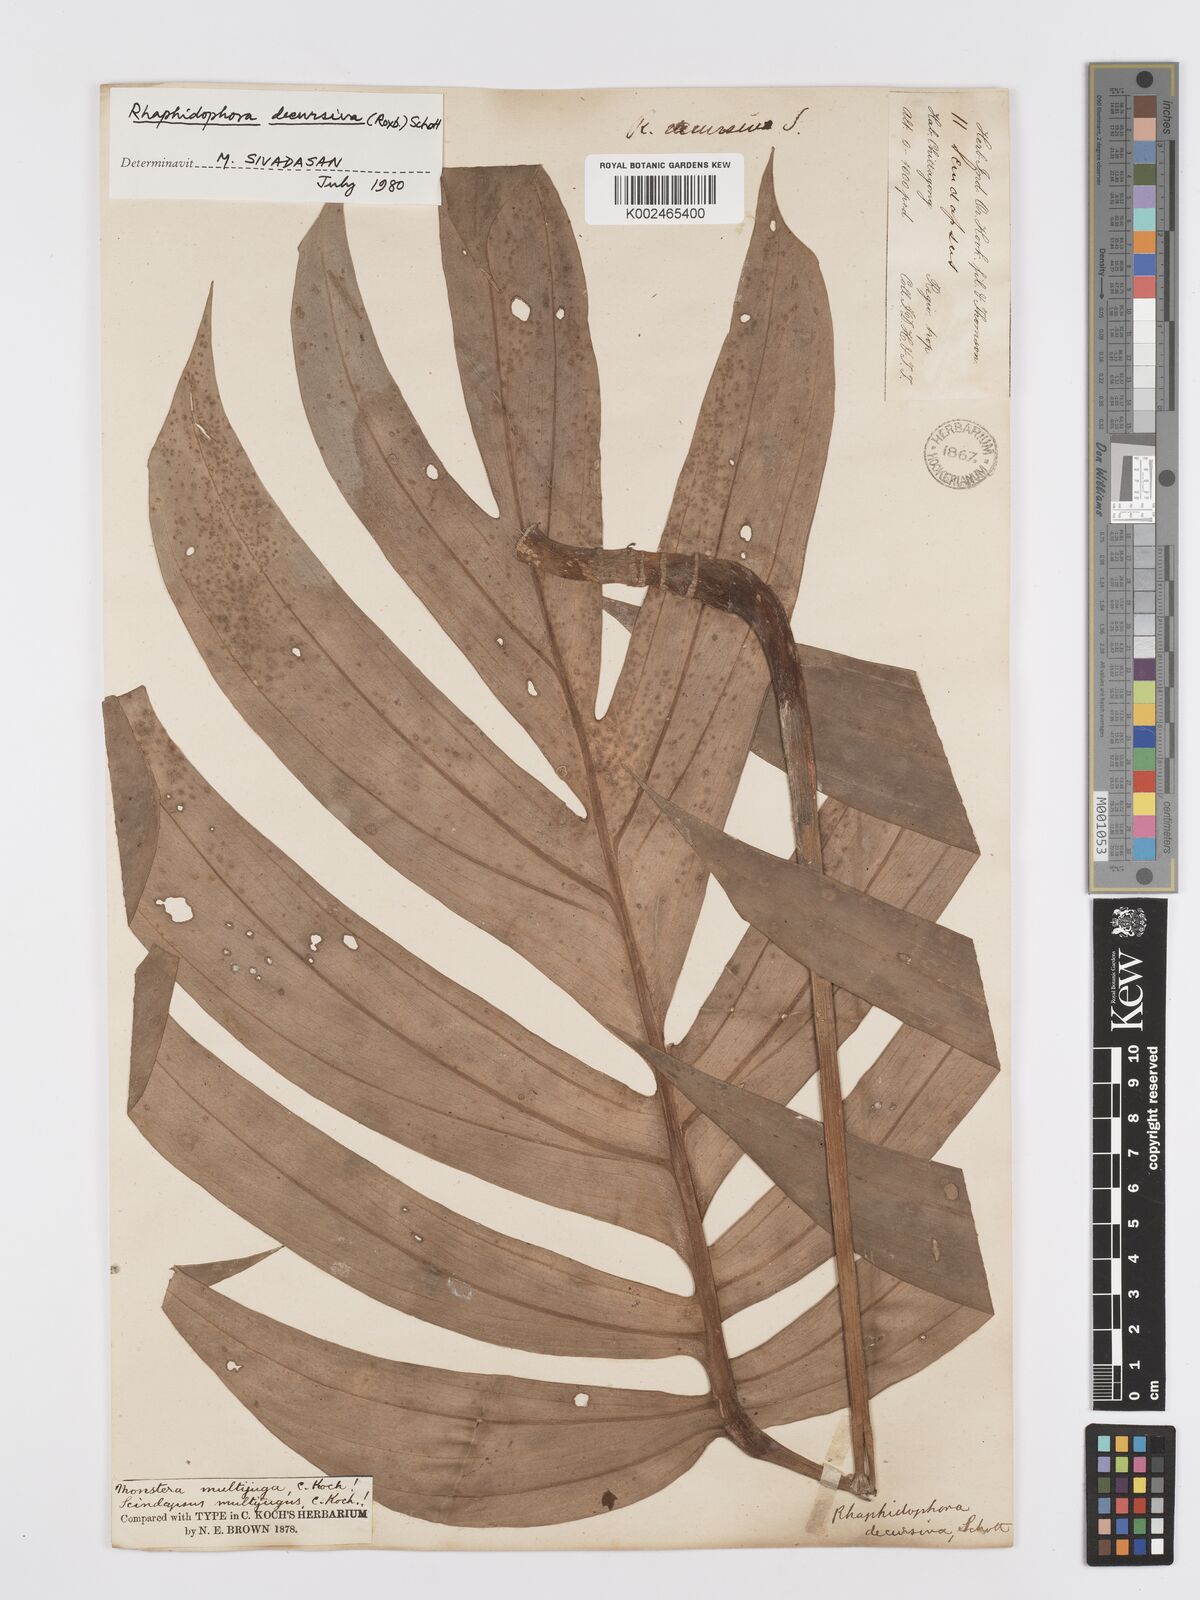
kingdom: Plantae
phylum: Tracheophyta
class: Liliopsida
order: Alismatales
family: Araceae
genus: Rhaphidophora
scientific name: Rhaphidophora decursiva
